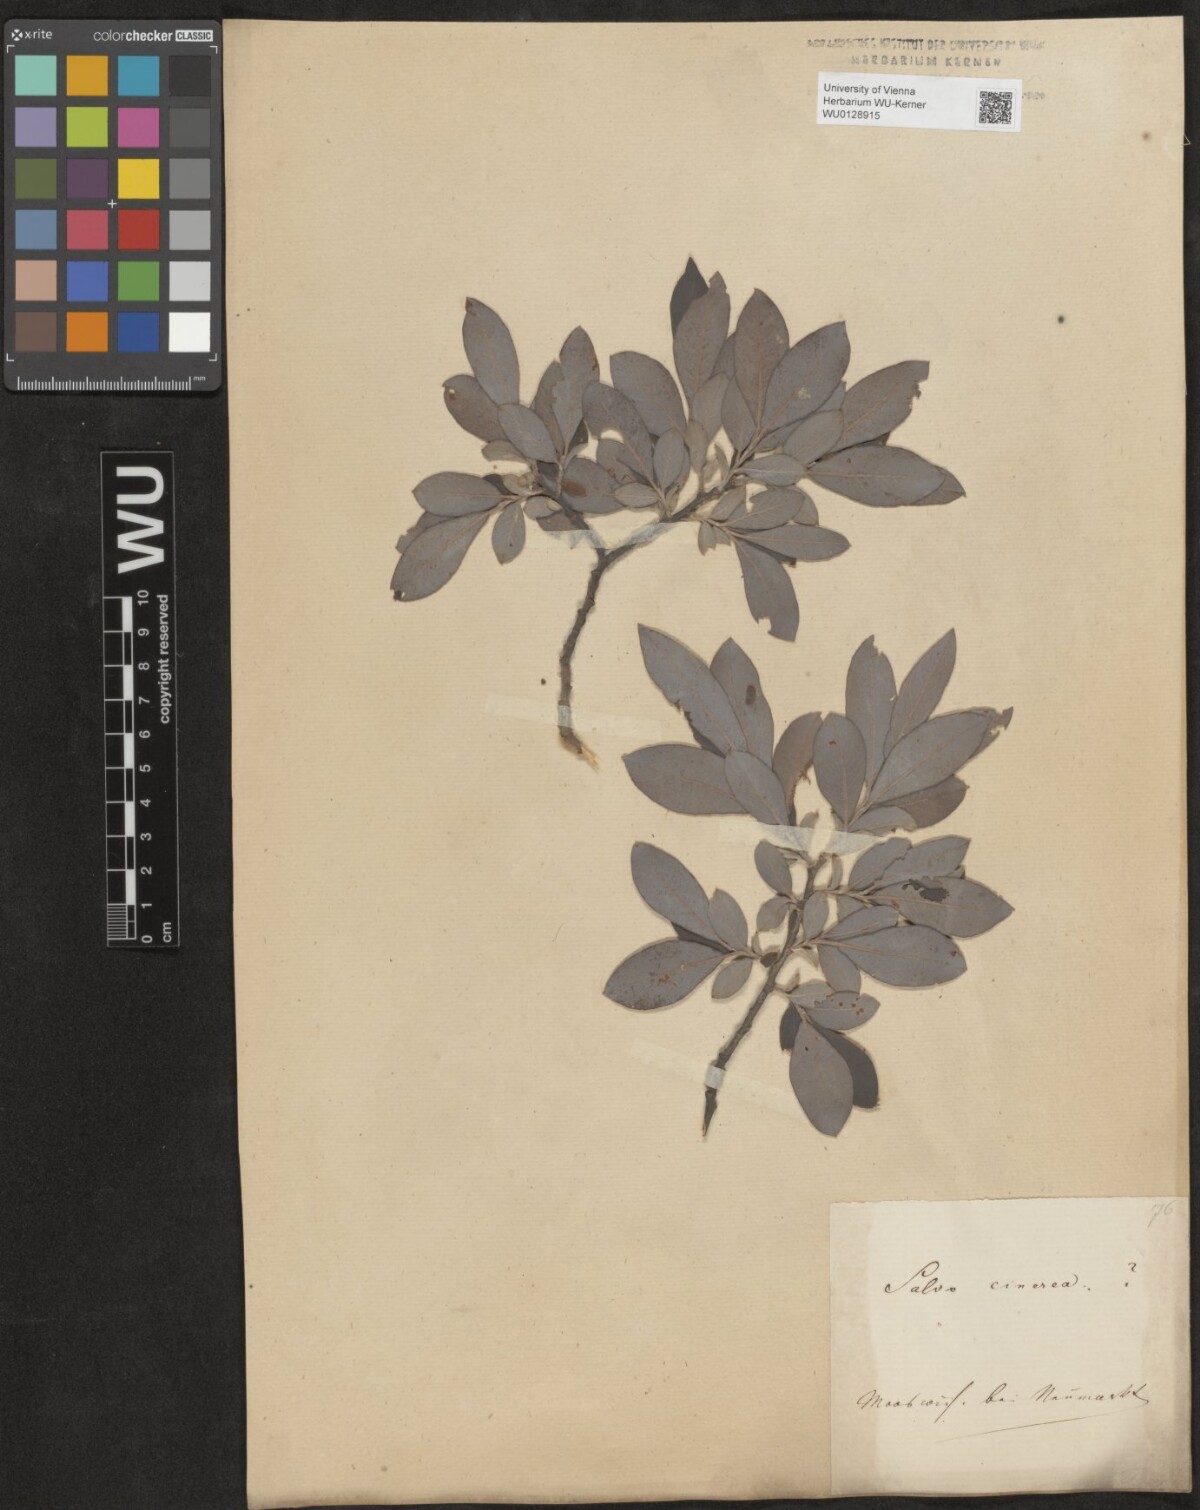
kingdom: Plantae
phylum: Tracheophyta
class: Magnoliopsida
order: Malpighiales
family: Salicaceae
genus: Salix
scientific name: Salix cinerea
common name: Common sallow
